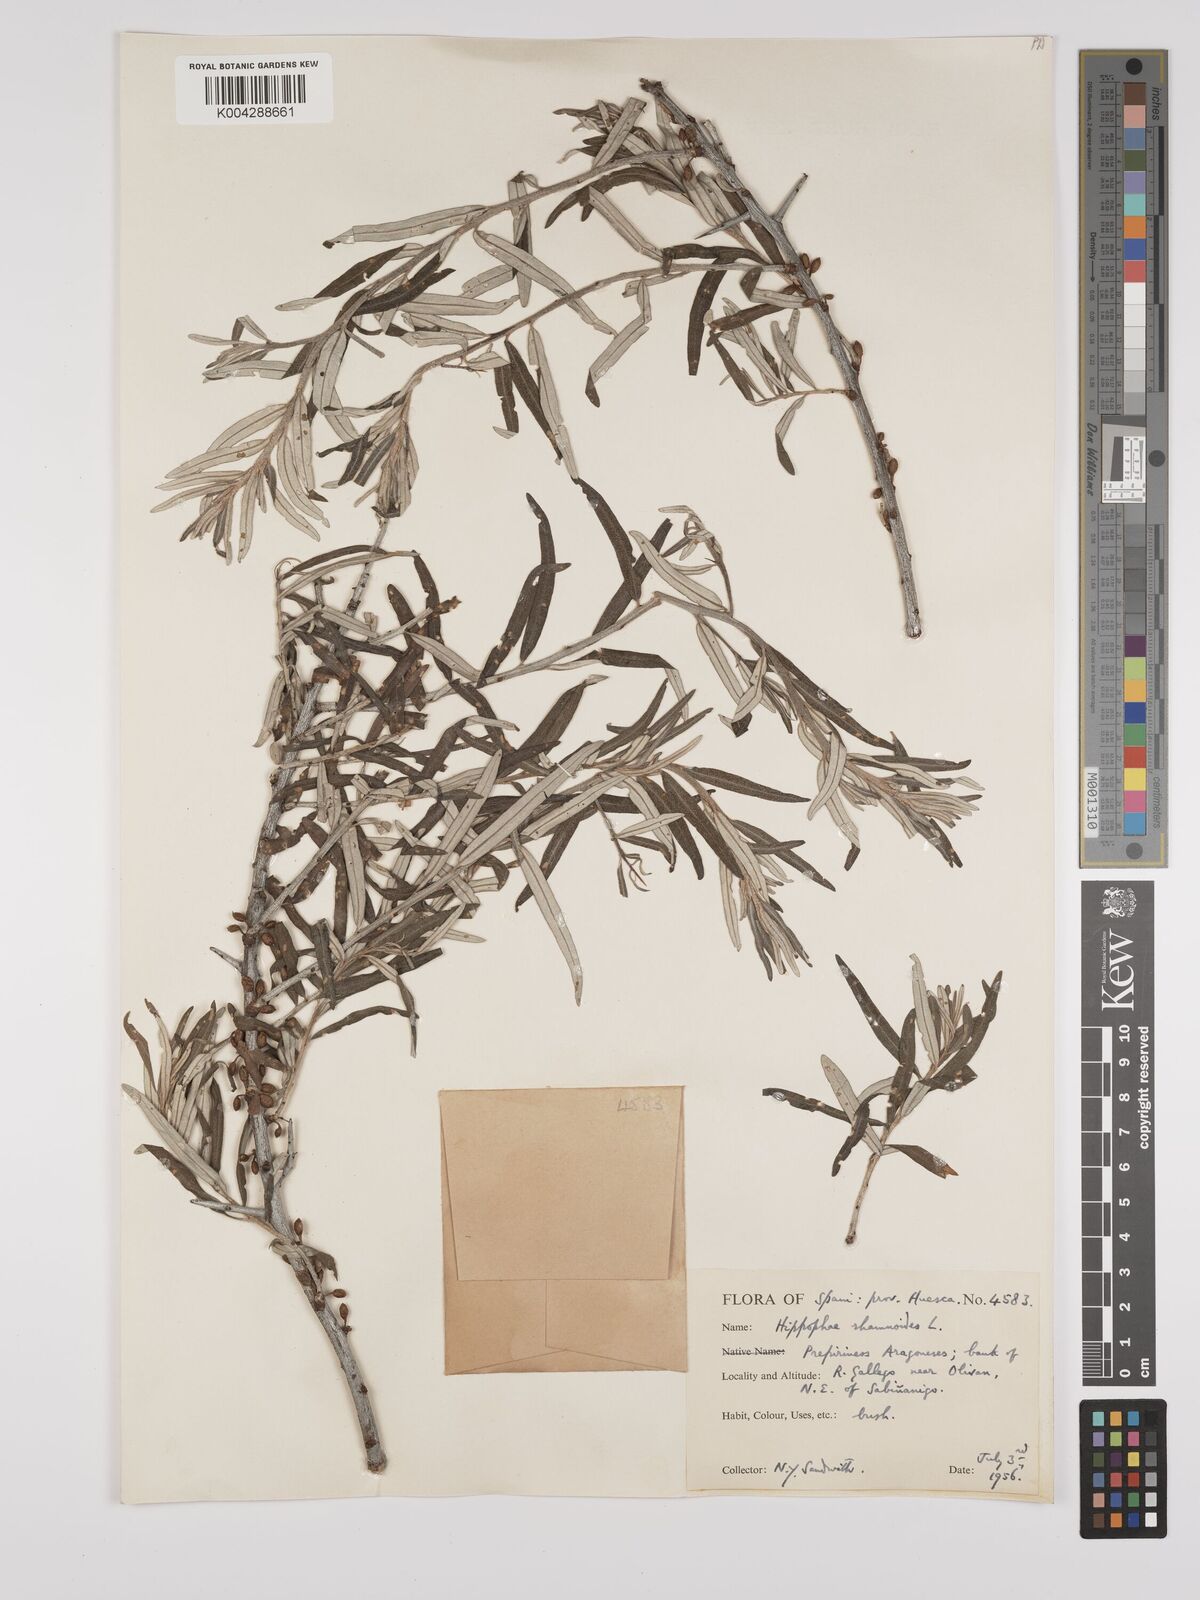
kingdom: Plantae
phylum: Tracheophyta
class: Magnoliopsida
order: Rosales
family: Elaeagnaceae
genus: Hippophae
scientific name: Hippophae rhamnoides
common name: Sea-buckthorn
